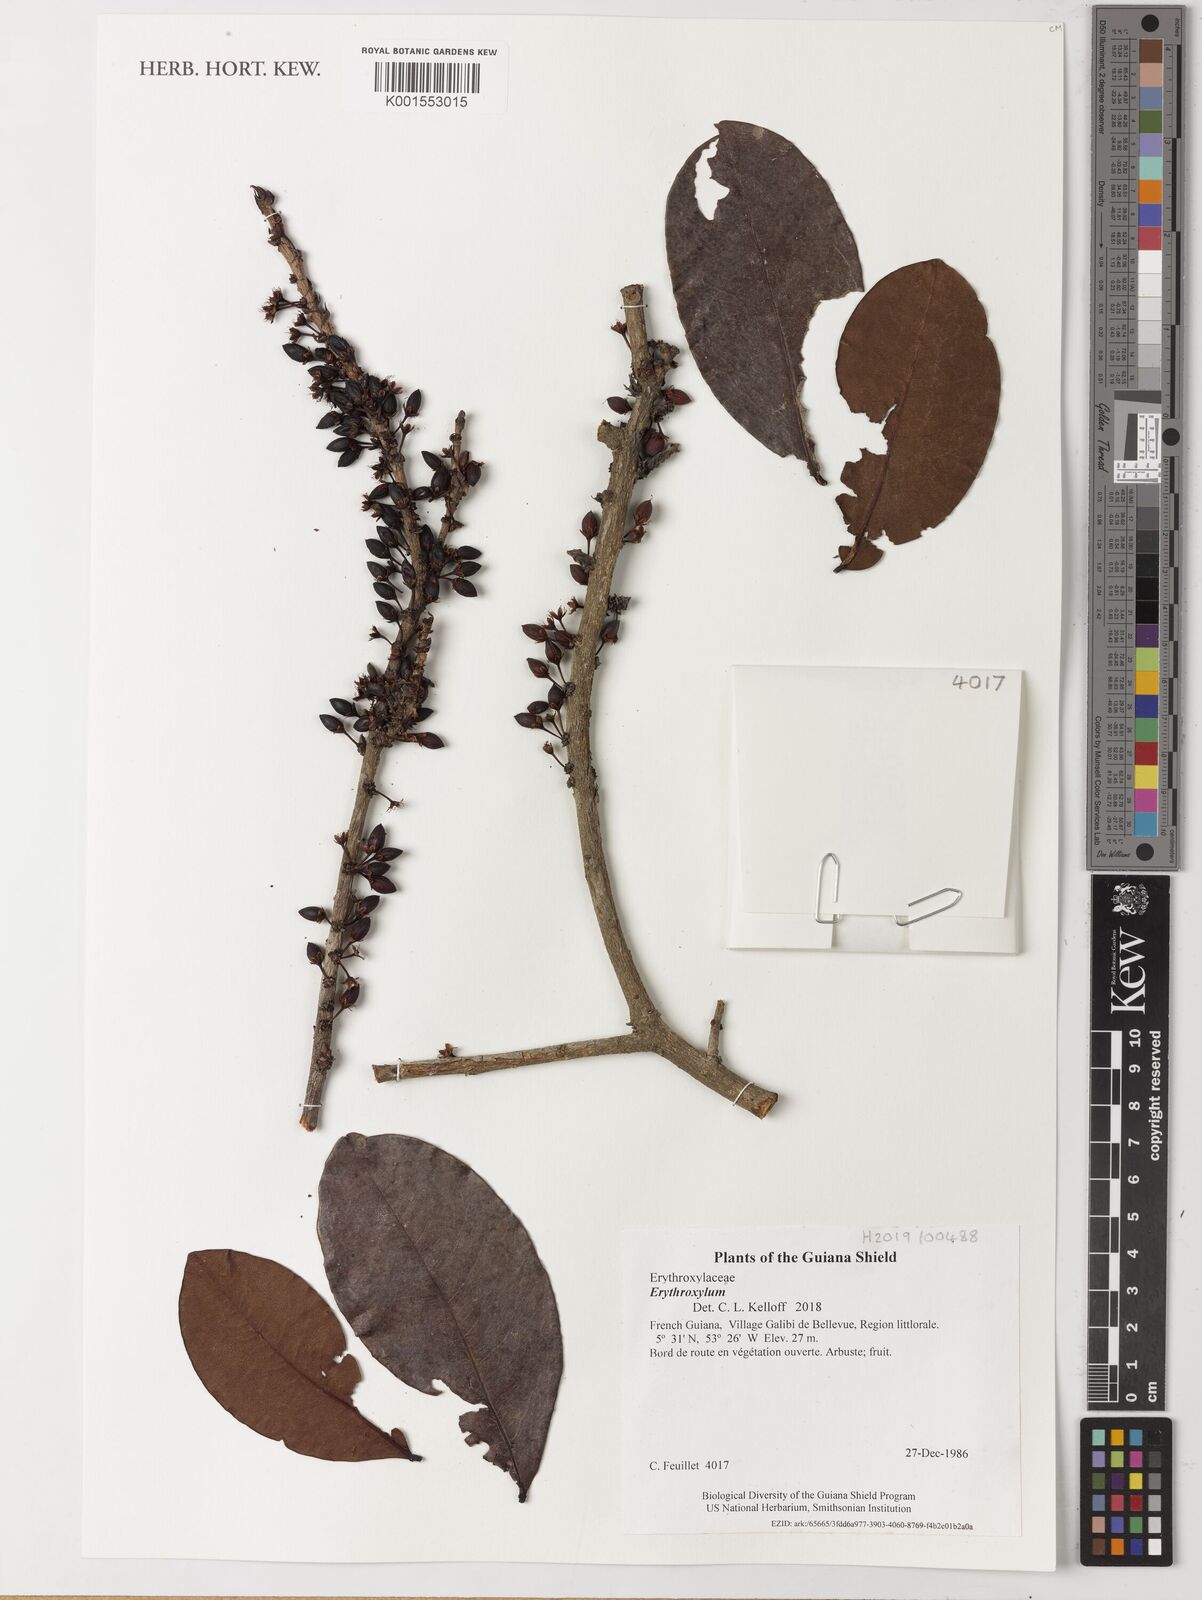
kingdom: Plantae
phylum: Tracheophyta
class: Magnoliopsida
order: Malpighiales
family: Erythroxylaceae
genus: Erythroxylum
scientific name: Erythroxylum
